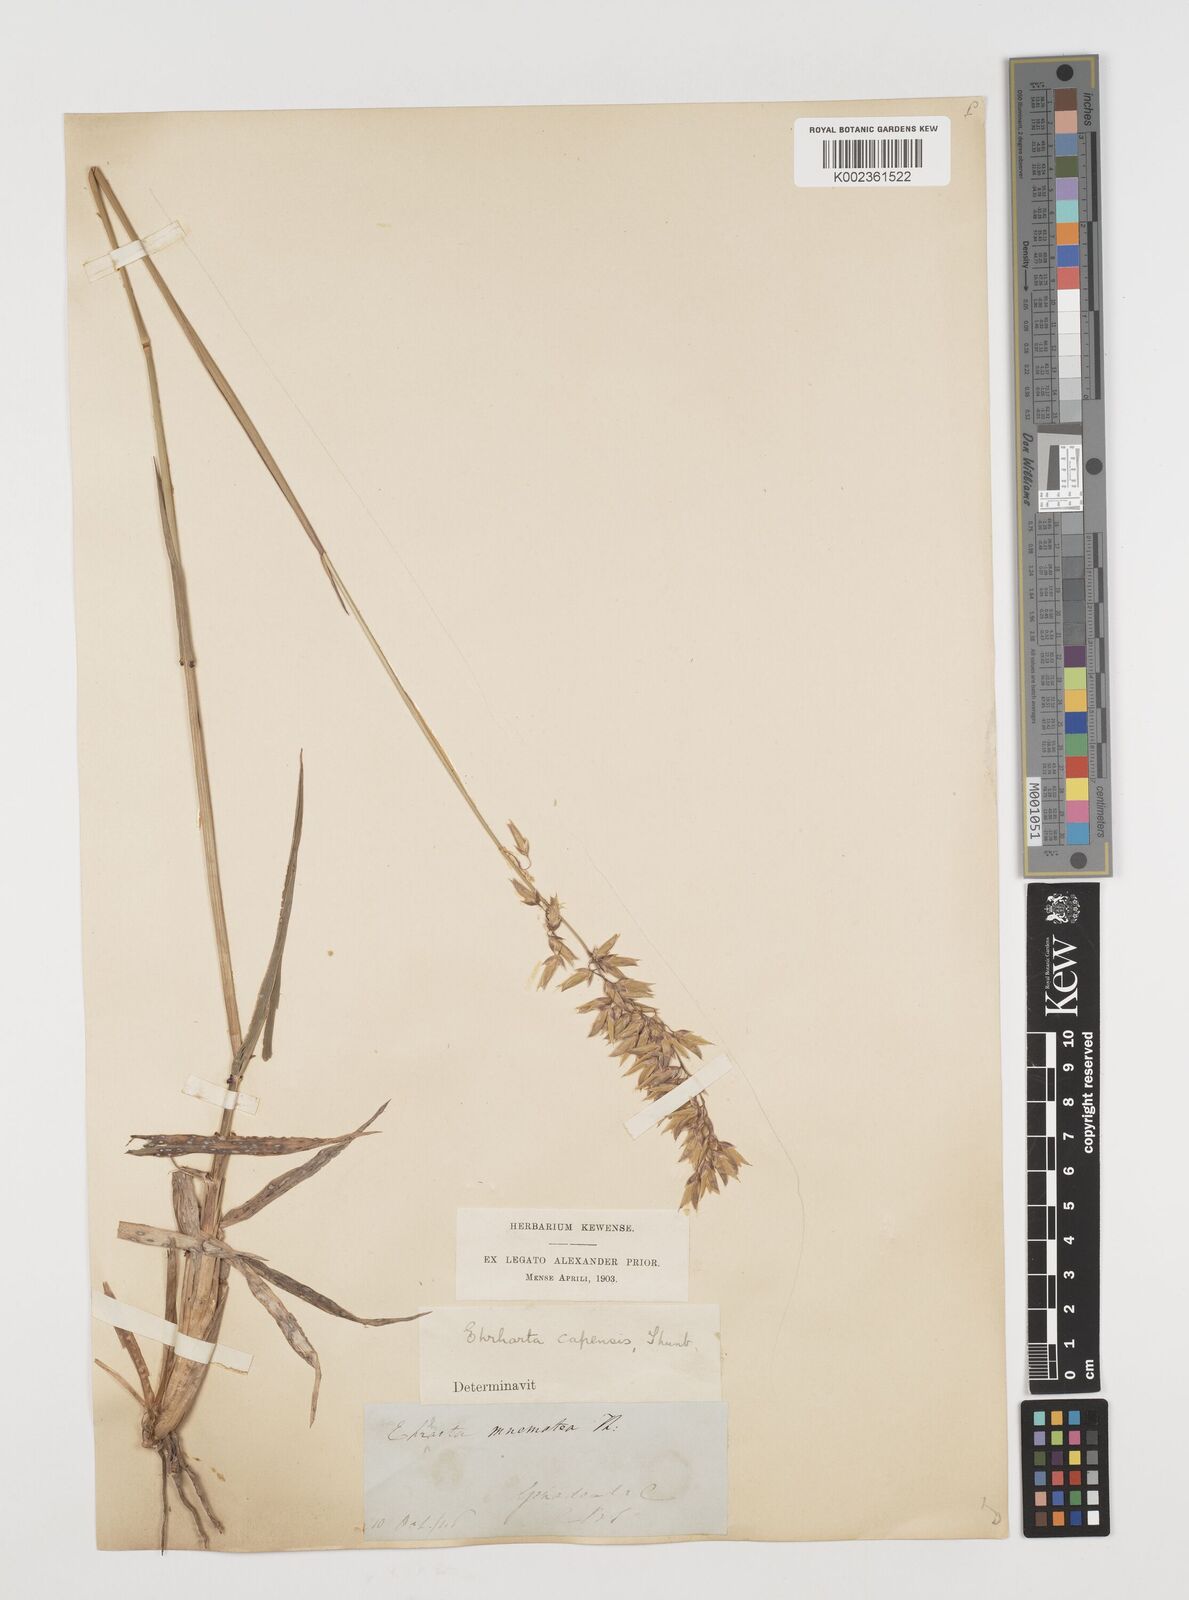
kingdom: Plantae
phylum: Tracheophyta
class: Liliopsida
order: Poales
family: Poaceae
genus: Ehrharta
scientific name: Ehrharta capensis
